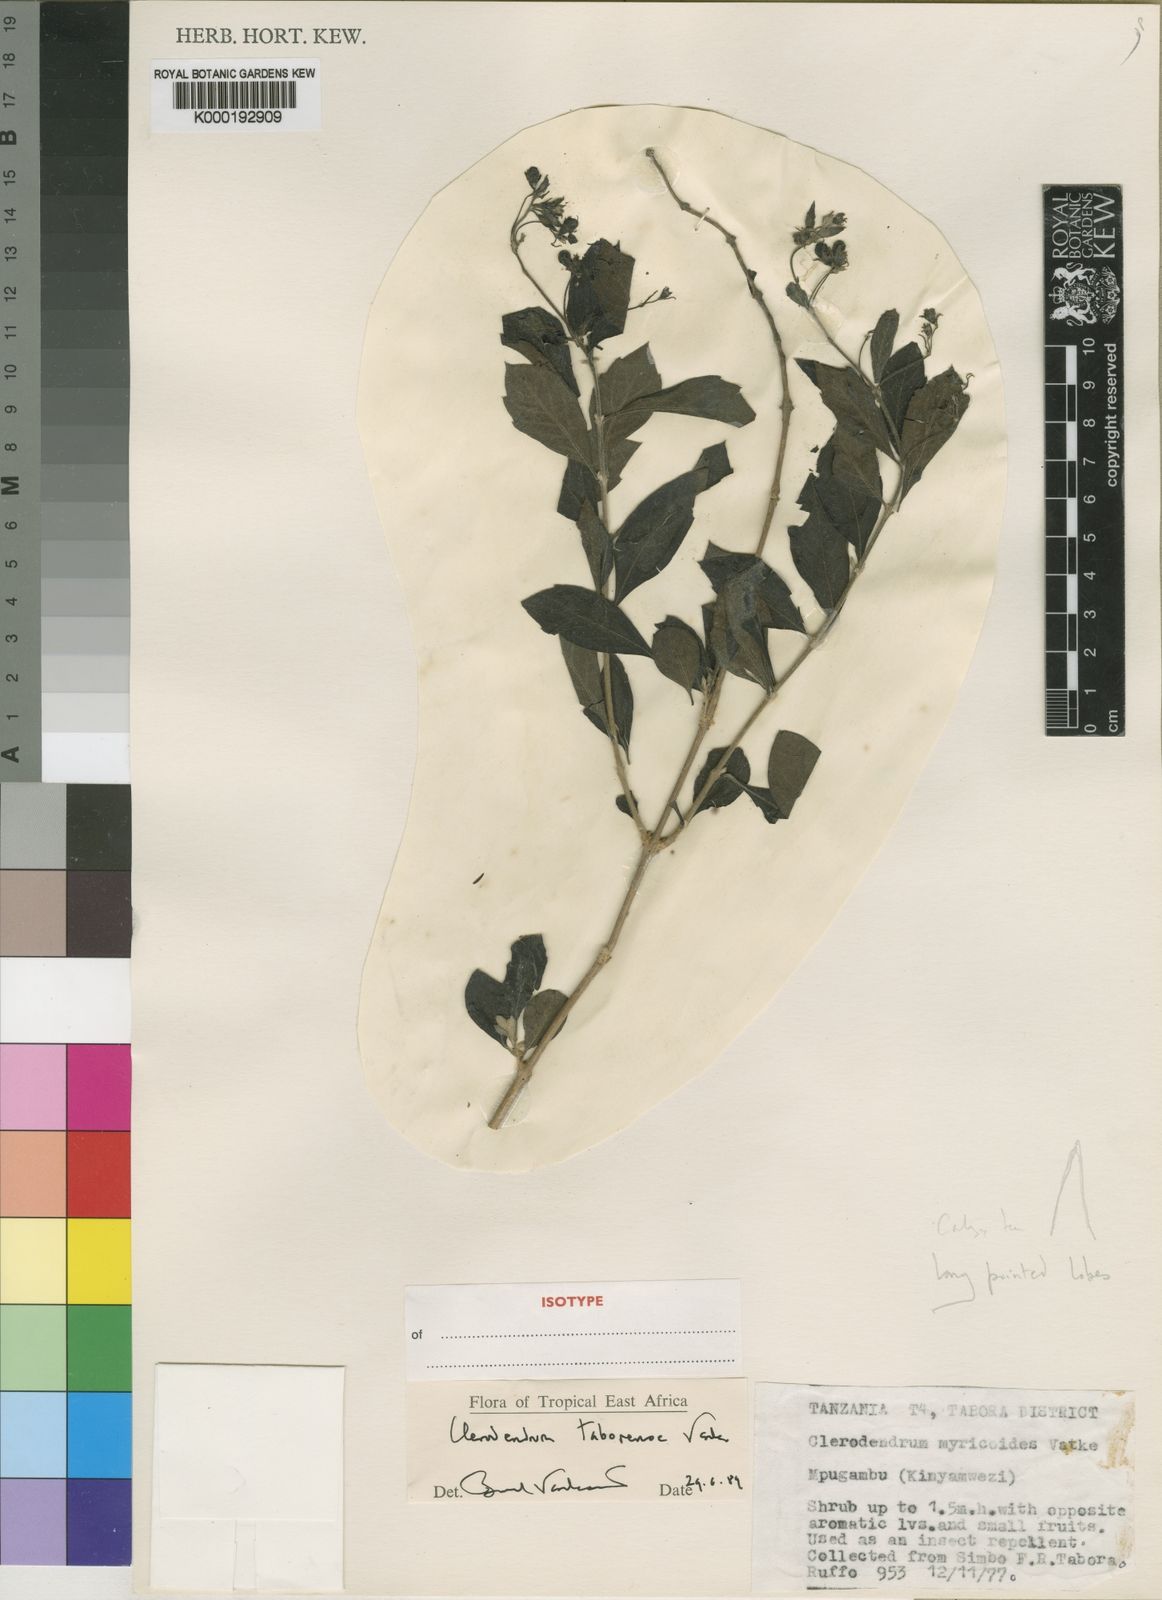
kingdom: Plantae
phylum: Tracheophyta
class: Magnoliopsida
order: Lamiales
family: Lamiaceae
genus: Rotheca
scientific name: Rotheca taborensis
